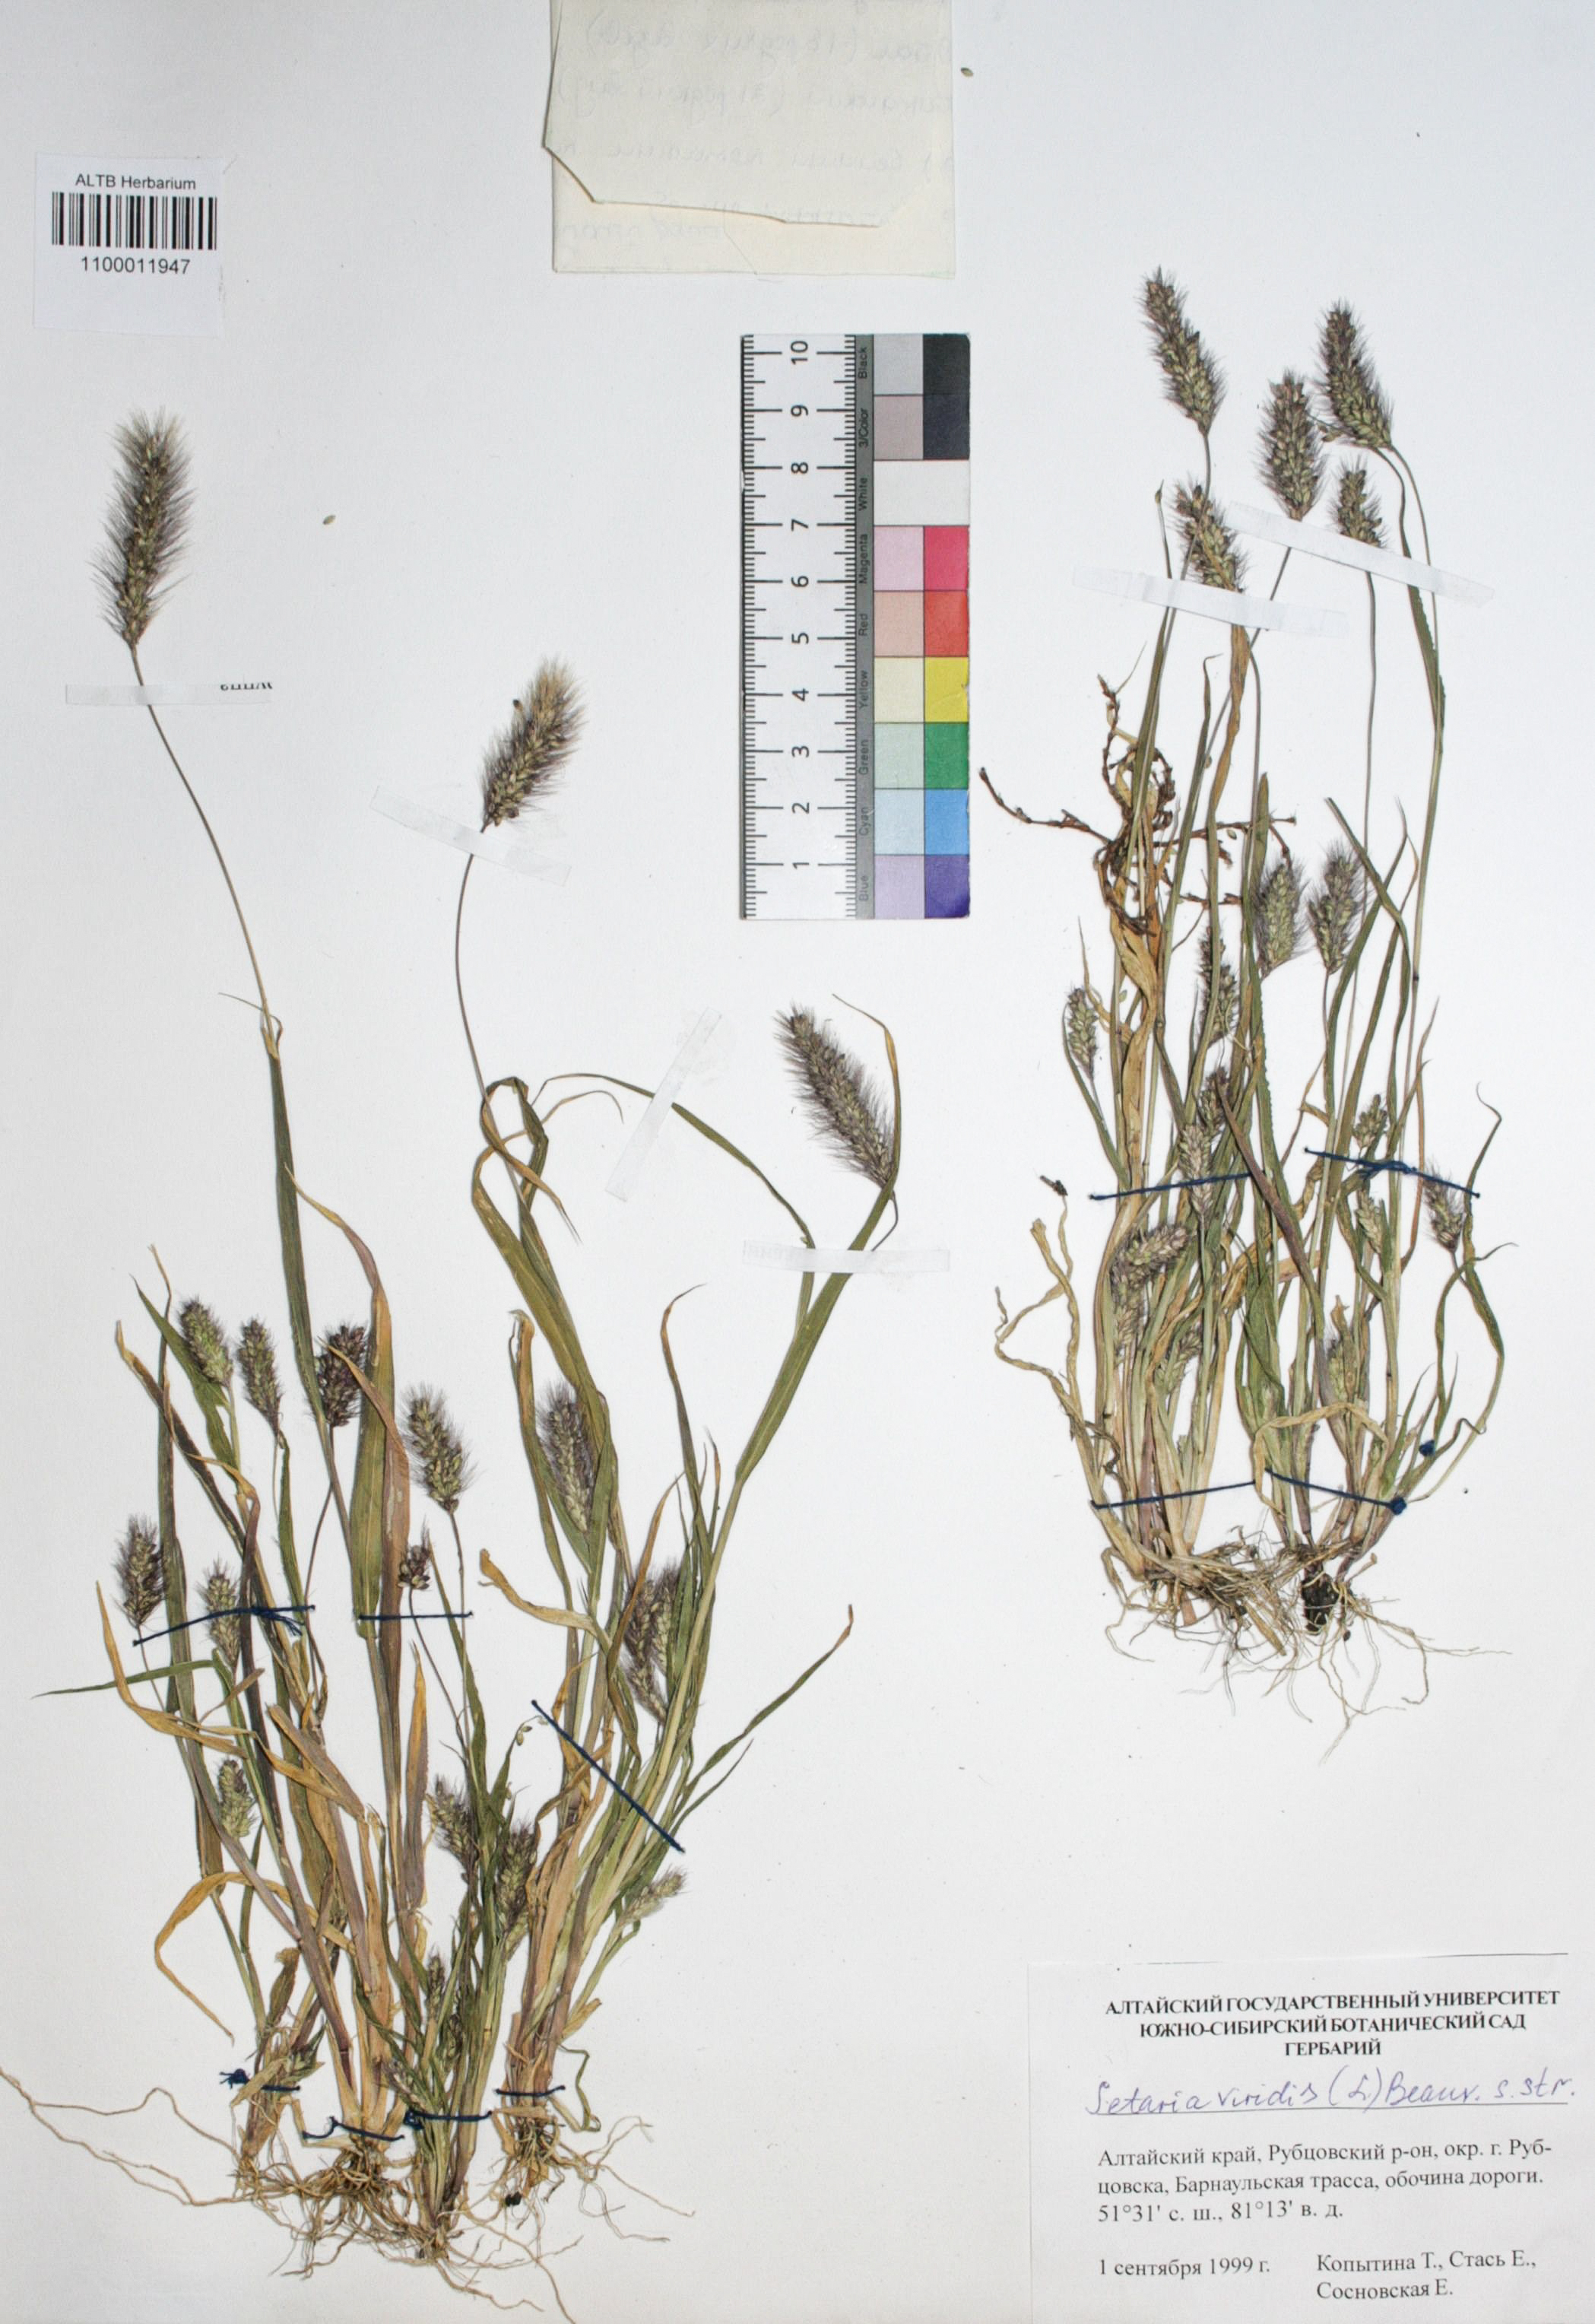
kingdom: Plantae
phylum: Tracheophyta
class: Liliopsida
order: Poales
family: Poaceae
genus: Setaria
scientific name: Setaria viridis
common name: Green bristlegrass
